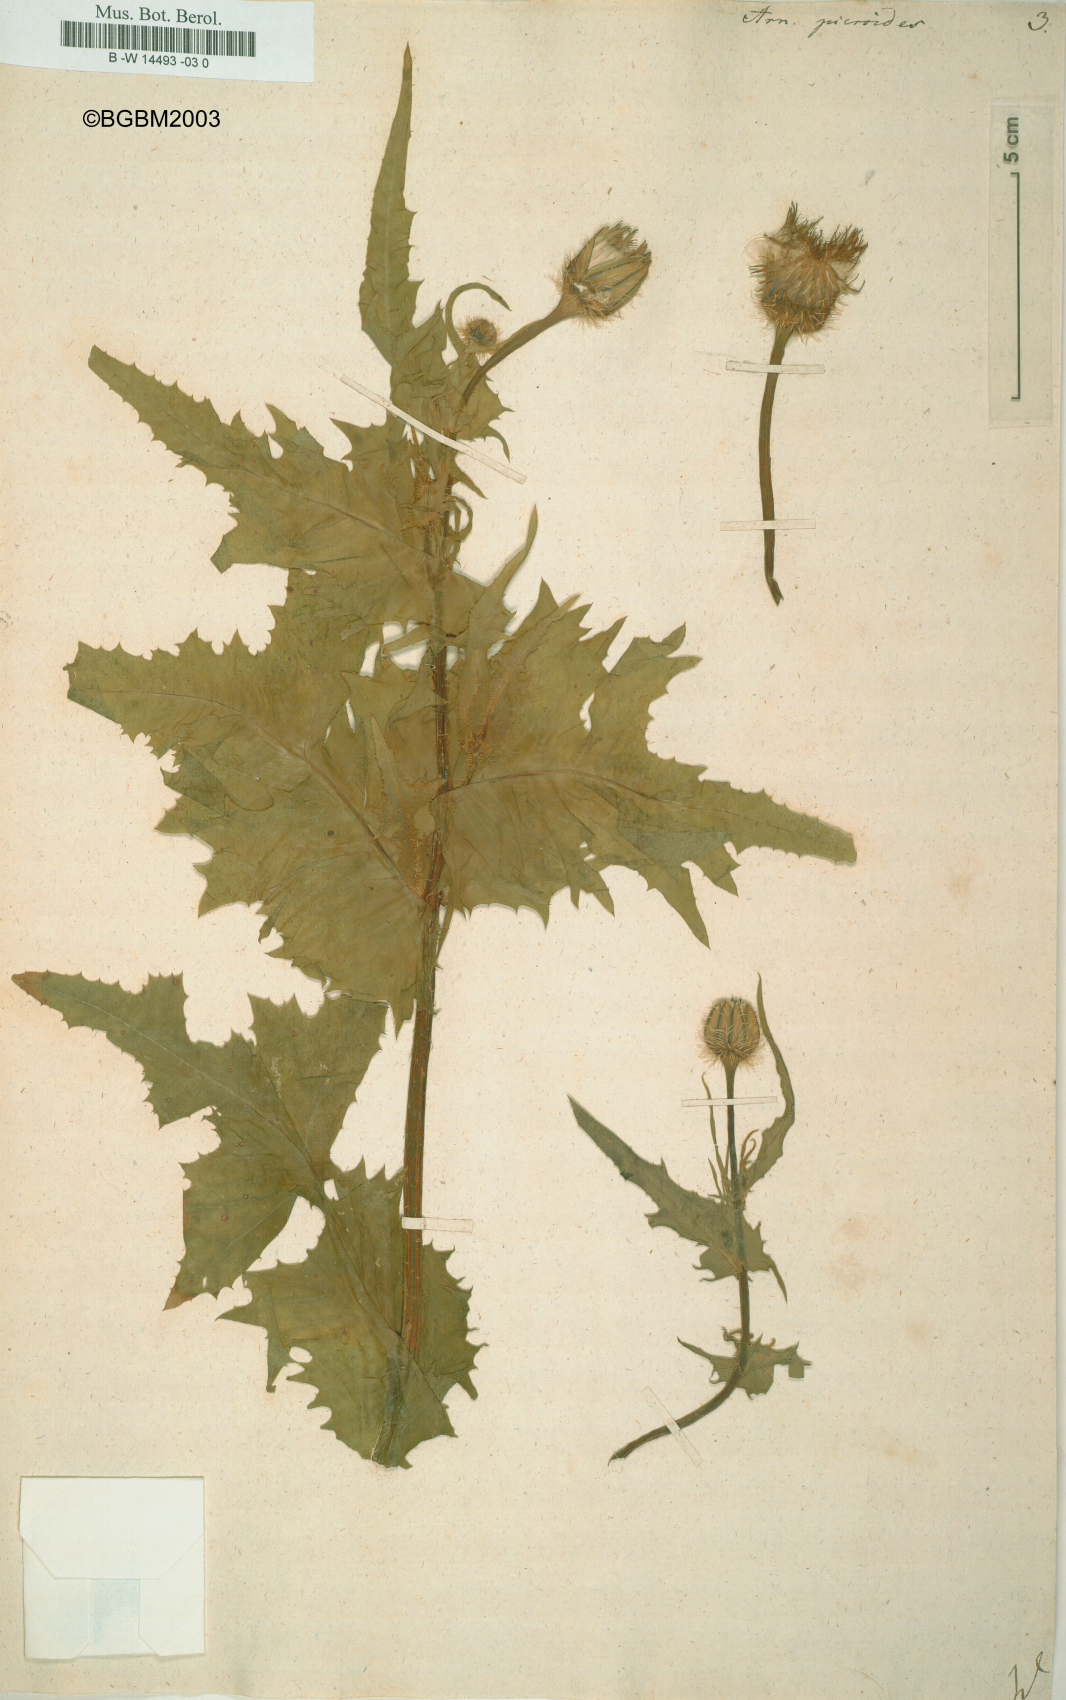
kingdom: Plantae
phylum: Tracheophyta
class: Magnoliopsida
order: Asterales
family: Asteraceae
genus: Urospermum
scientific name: Urospermum picroides
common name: False hawkbit
